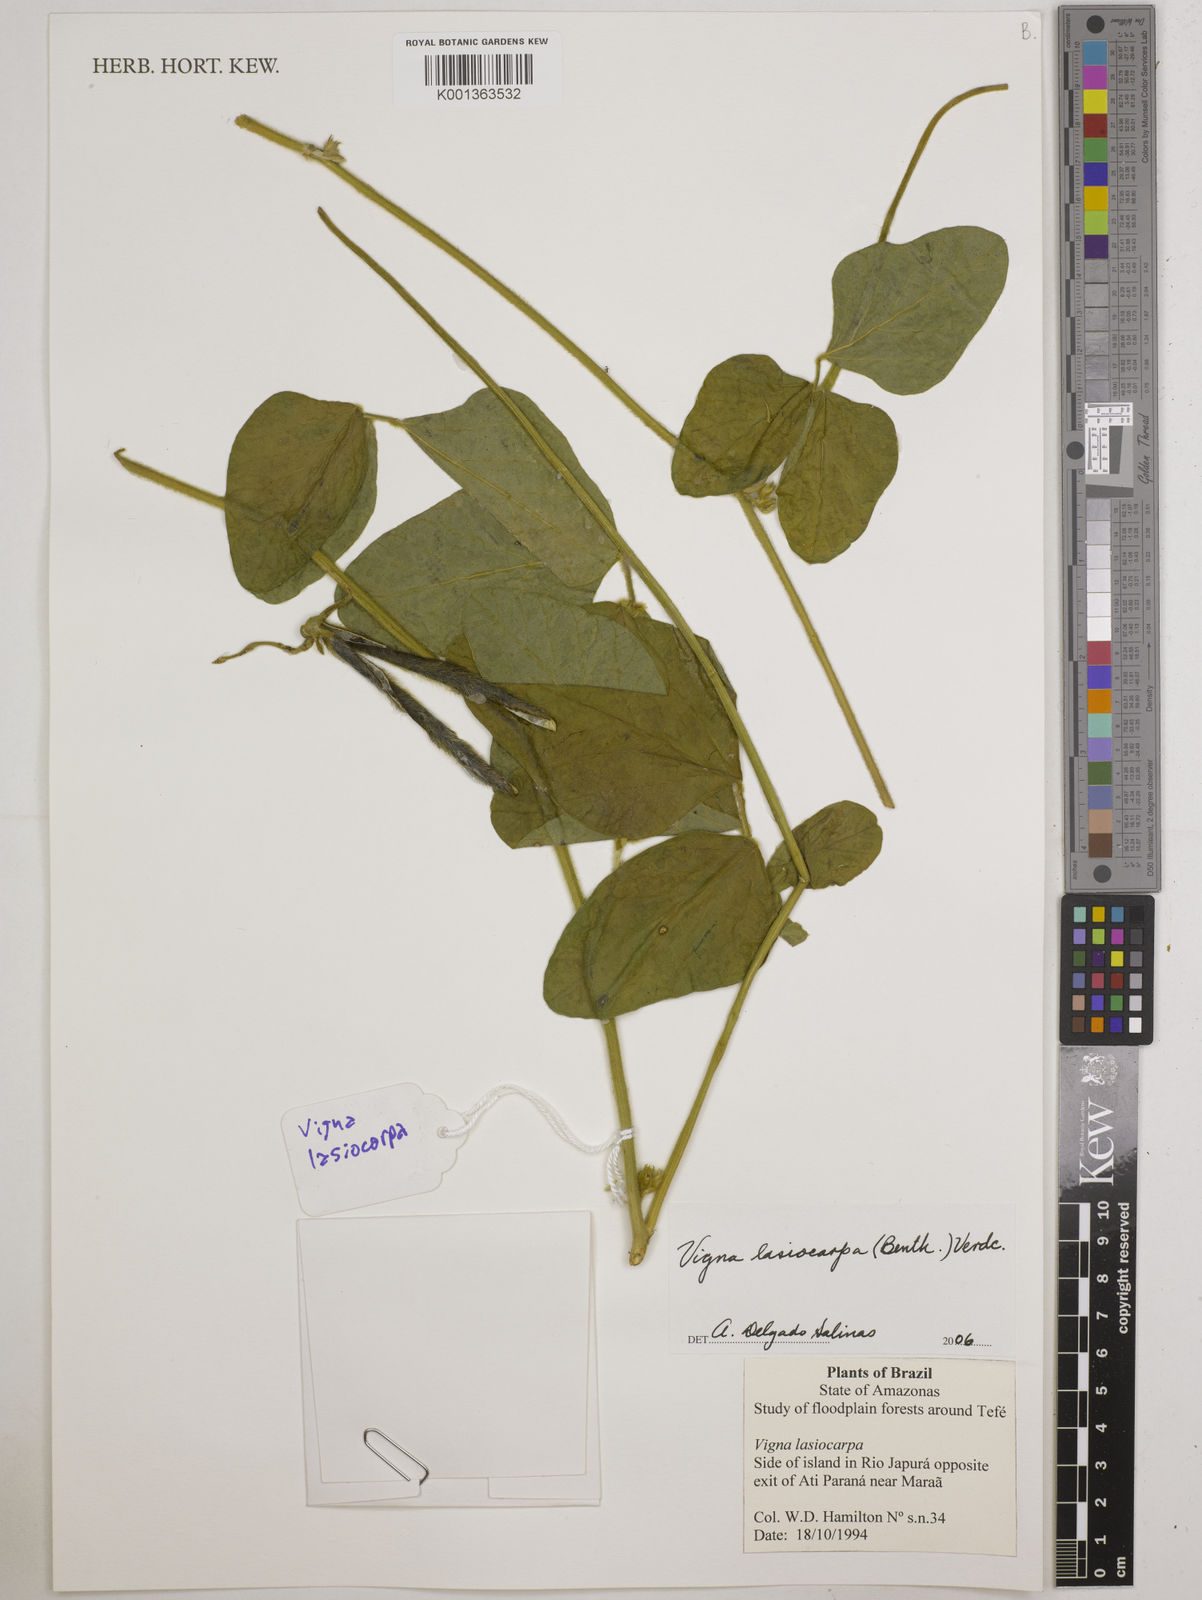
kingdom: Plantae
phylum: Tracheophyta
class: Magnoliopsida
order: Fabales
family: Fabaceae
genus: Vigna
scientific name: Vigna lasiocarpa
